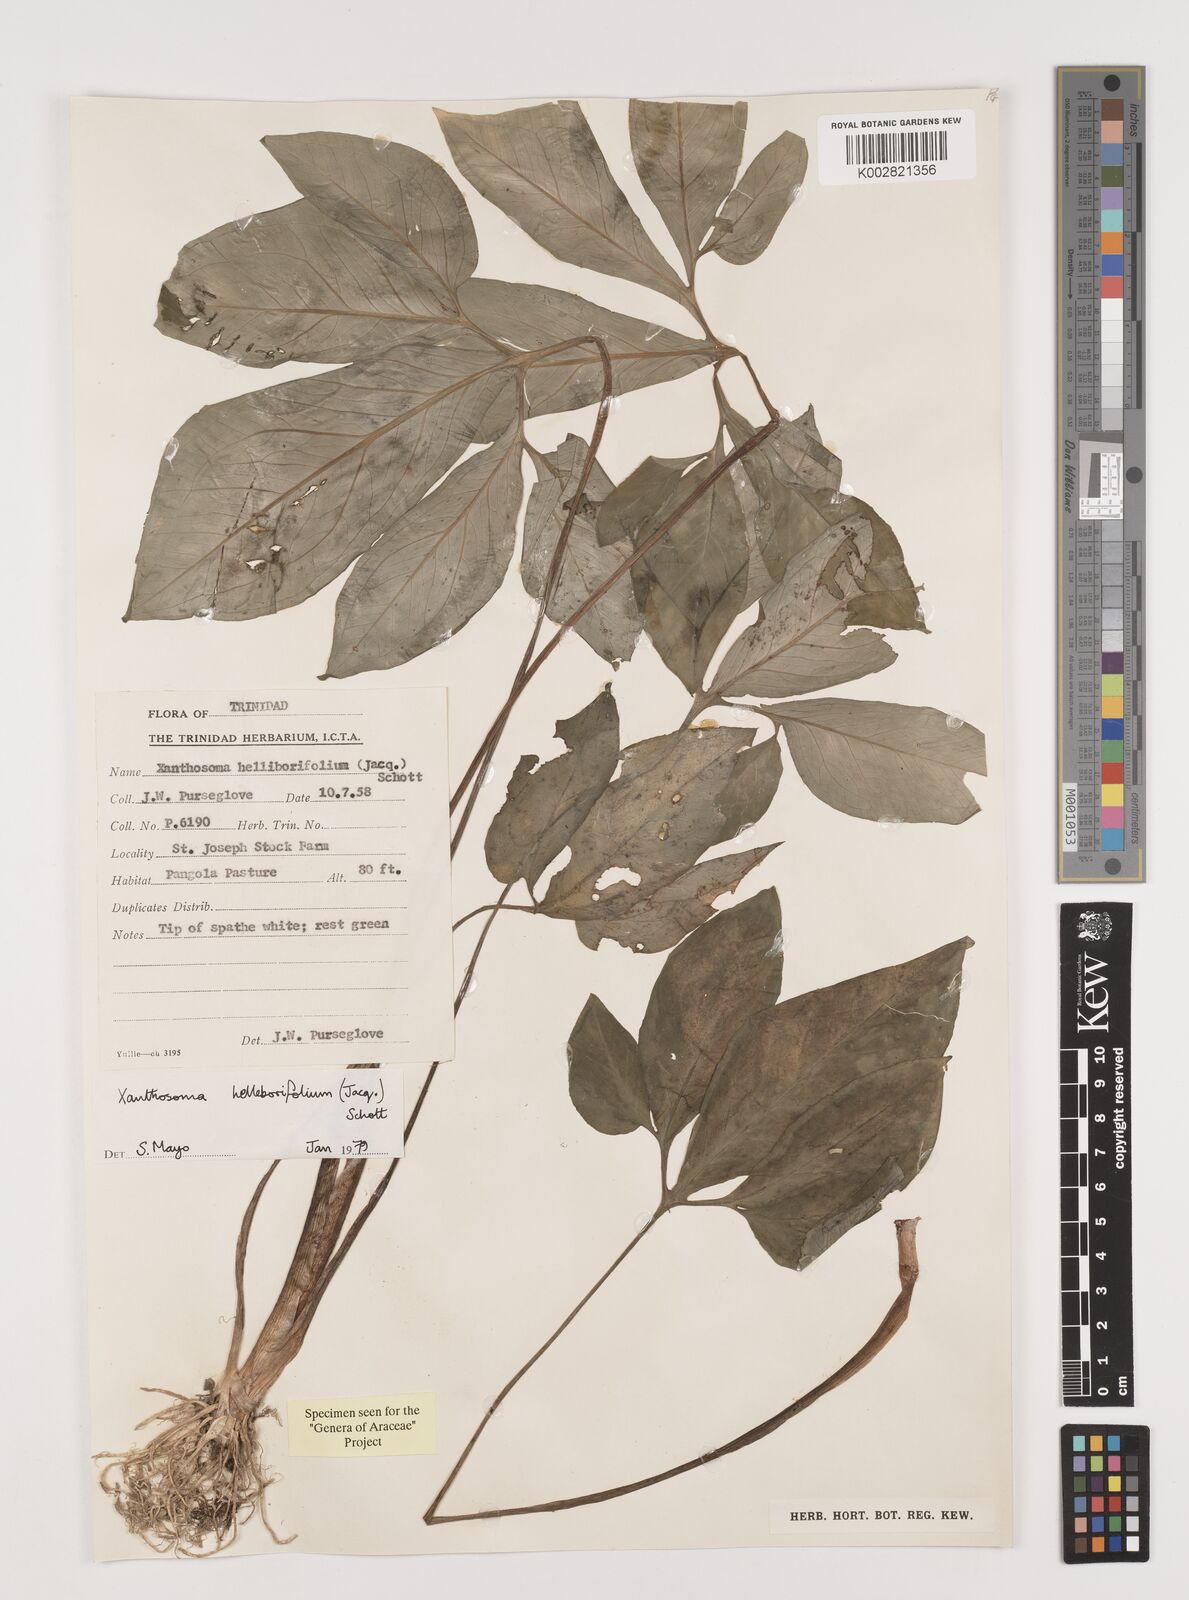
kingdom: Plantae
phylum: Tracheophyta
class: Liliopsida
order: Alismatales
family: Araceae
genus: Xanthosoma
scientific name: Xanthosoma helleborifolium
